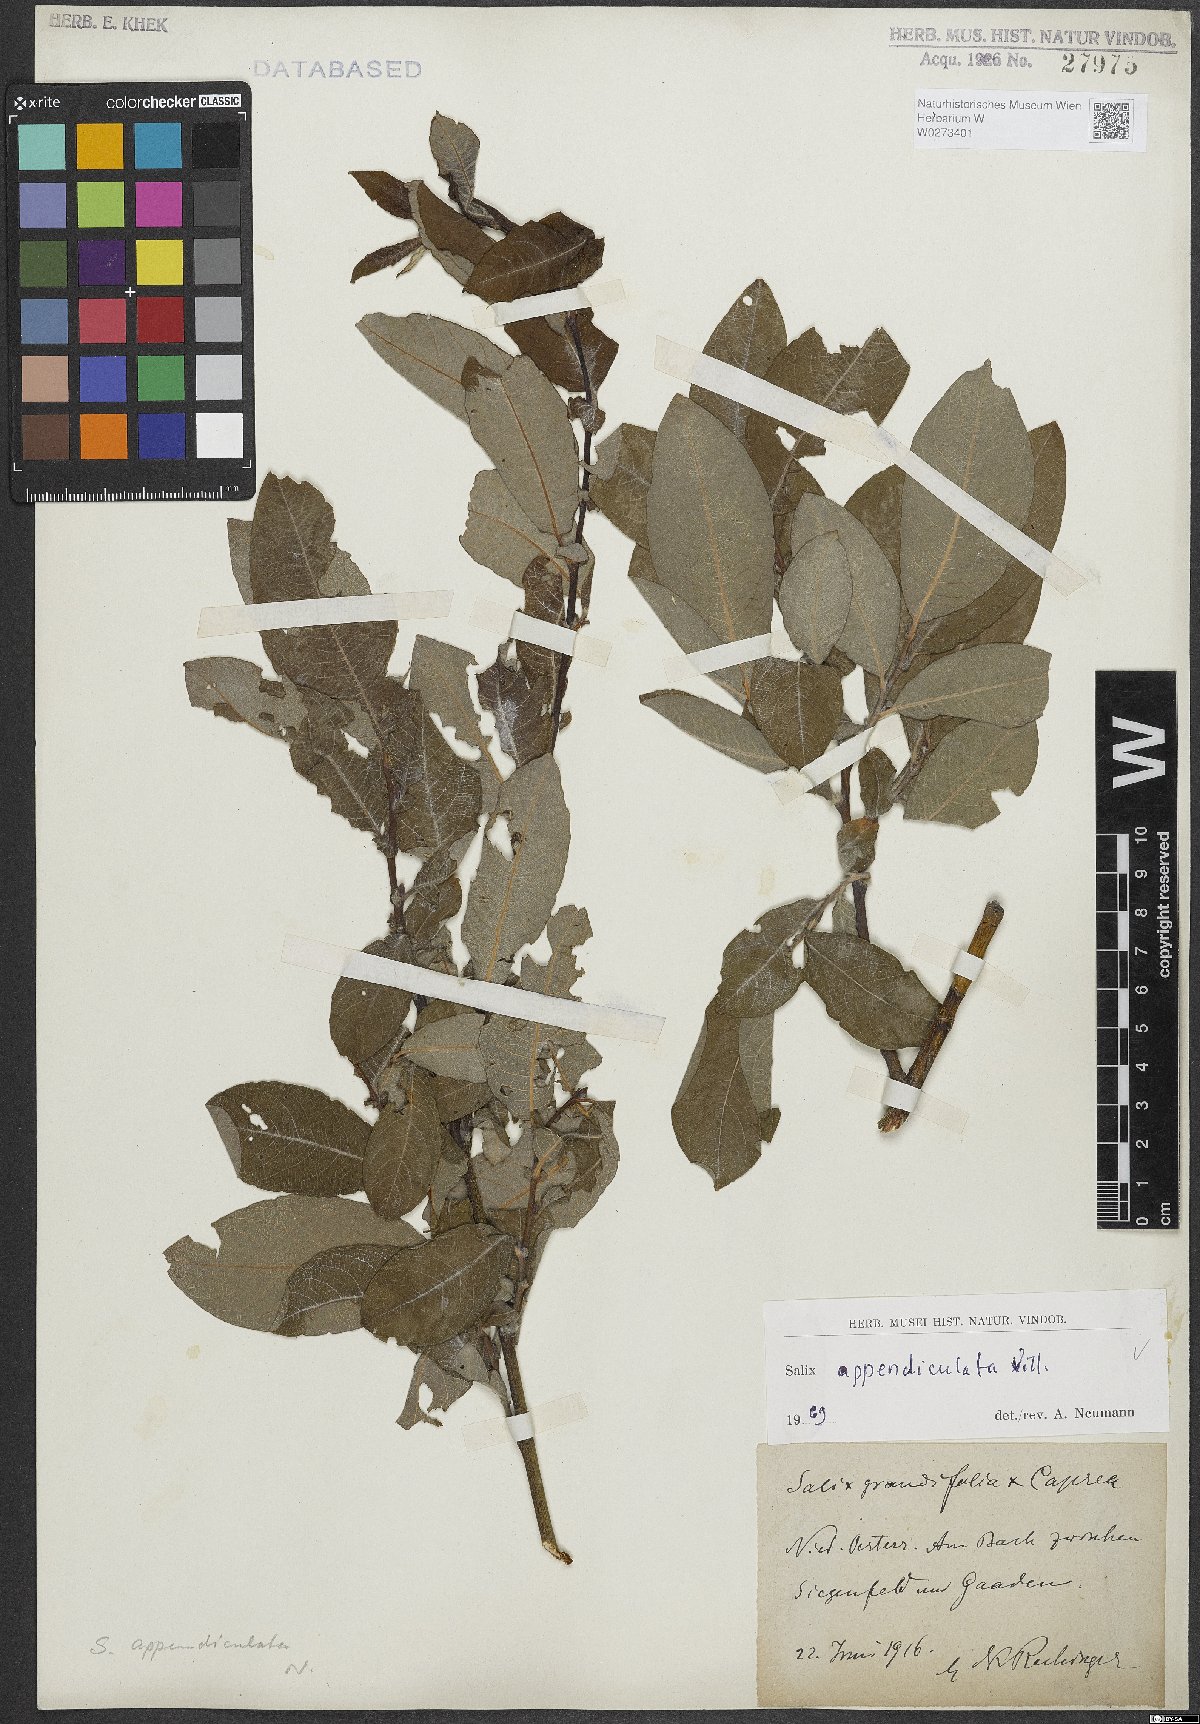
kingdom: Plantae
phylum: Tracheophyta
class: Magnoliopsida
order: Malpighiales
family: Salicaceae
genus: Salix
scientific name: Salix appendiculata
